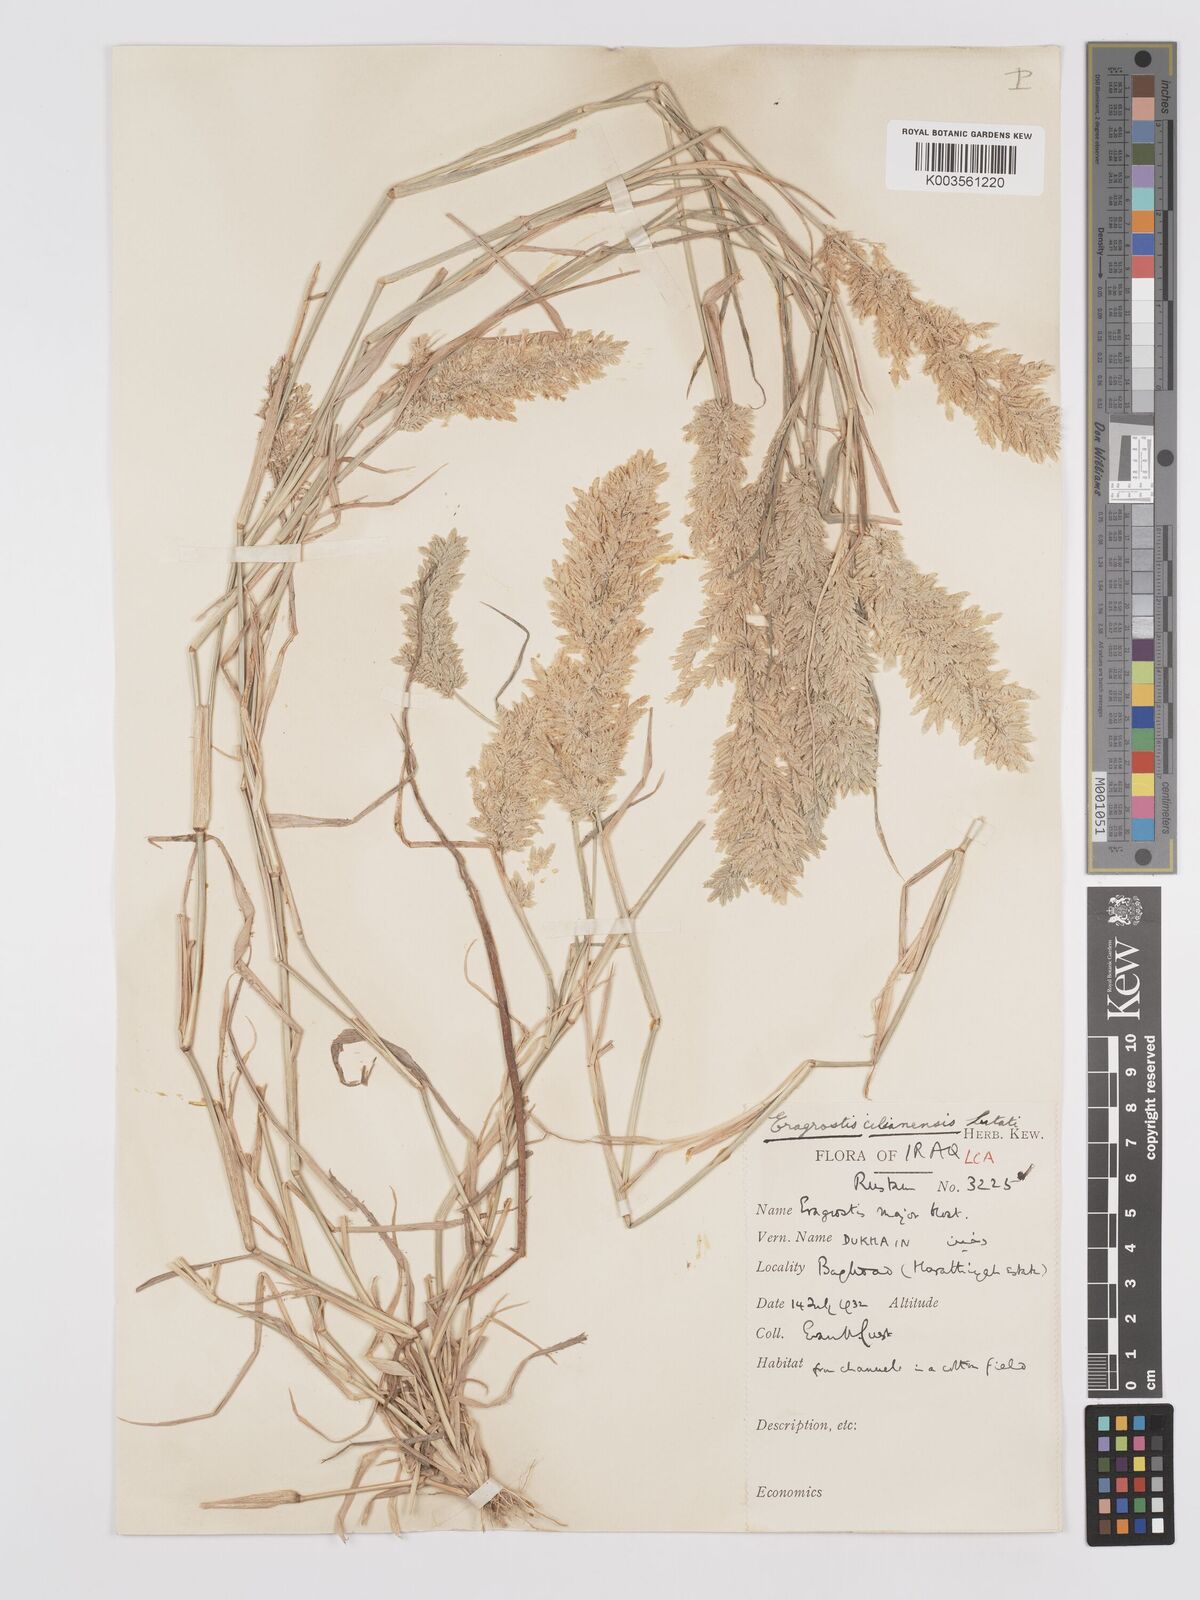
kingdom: Plantae
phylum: Tracheophyta
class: Liliopsida
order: Poales
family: Poaceae
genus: Eragrostis
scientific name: Eragrostis cilianensis
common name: Stinkgrass
